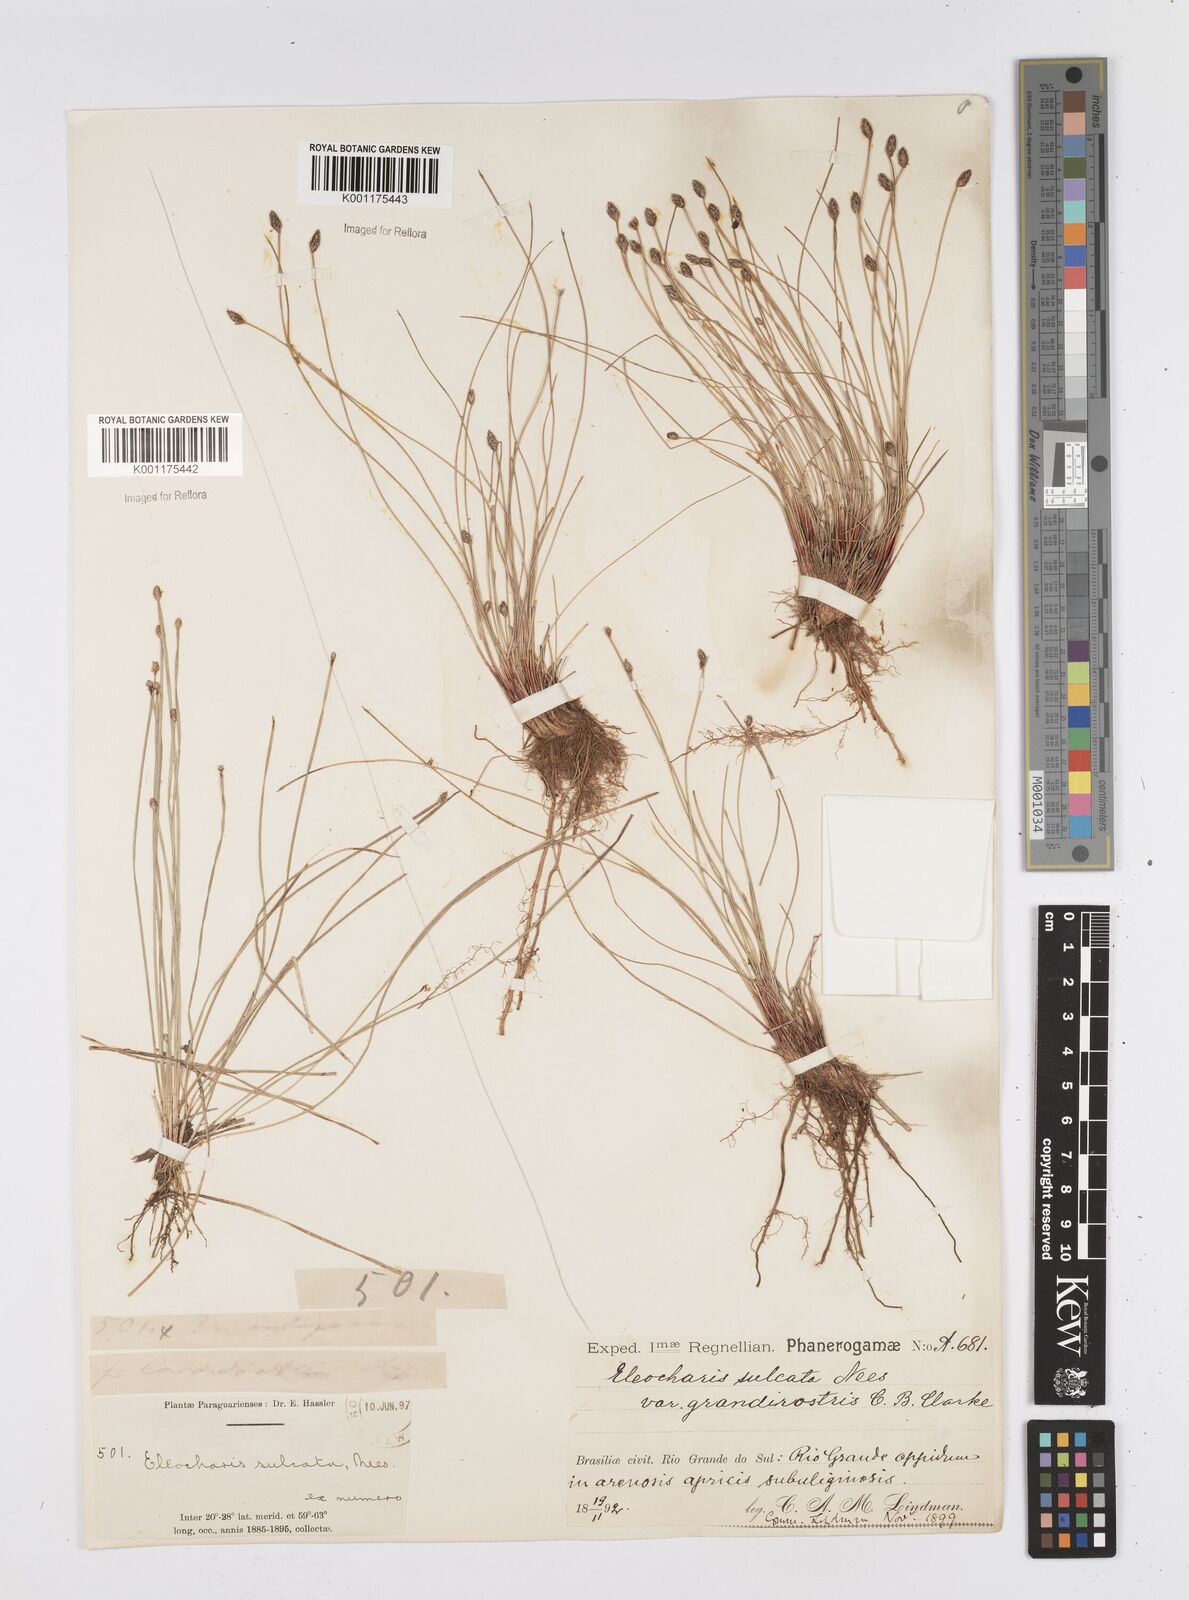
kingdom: Plantae
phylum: Tracheophyta
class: Liliopsida
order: Poales
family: Cyperaceae
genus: Eleocharis
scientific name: Eleocharis filiculmis
